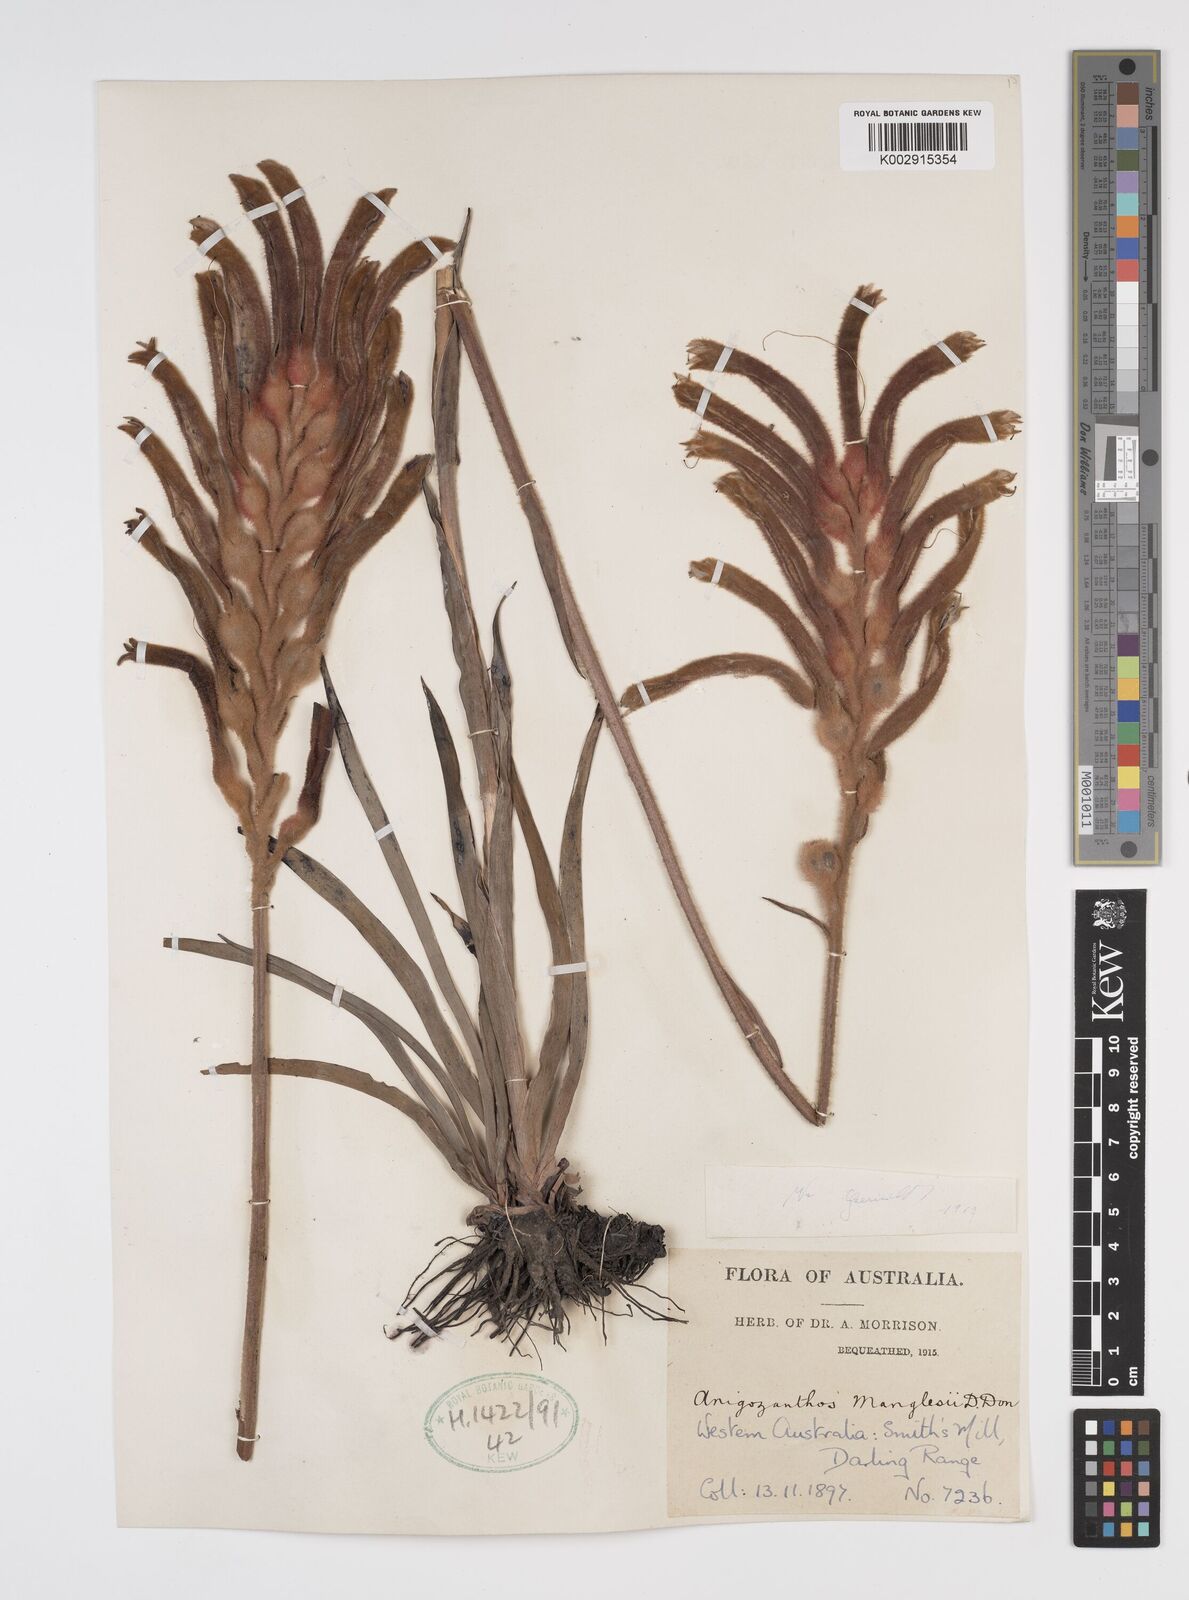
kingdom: Plantae
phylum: Tracheophyta
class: Liliopsida
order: Commelinales
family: Haemodoraceae
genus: Anigozanthos
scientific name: Anigozanthos manglesii
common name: Mangles's kangaroo-paw
